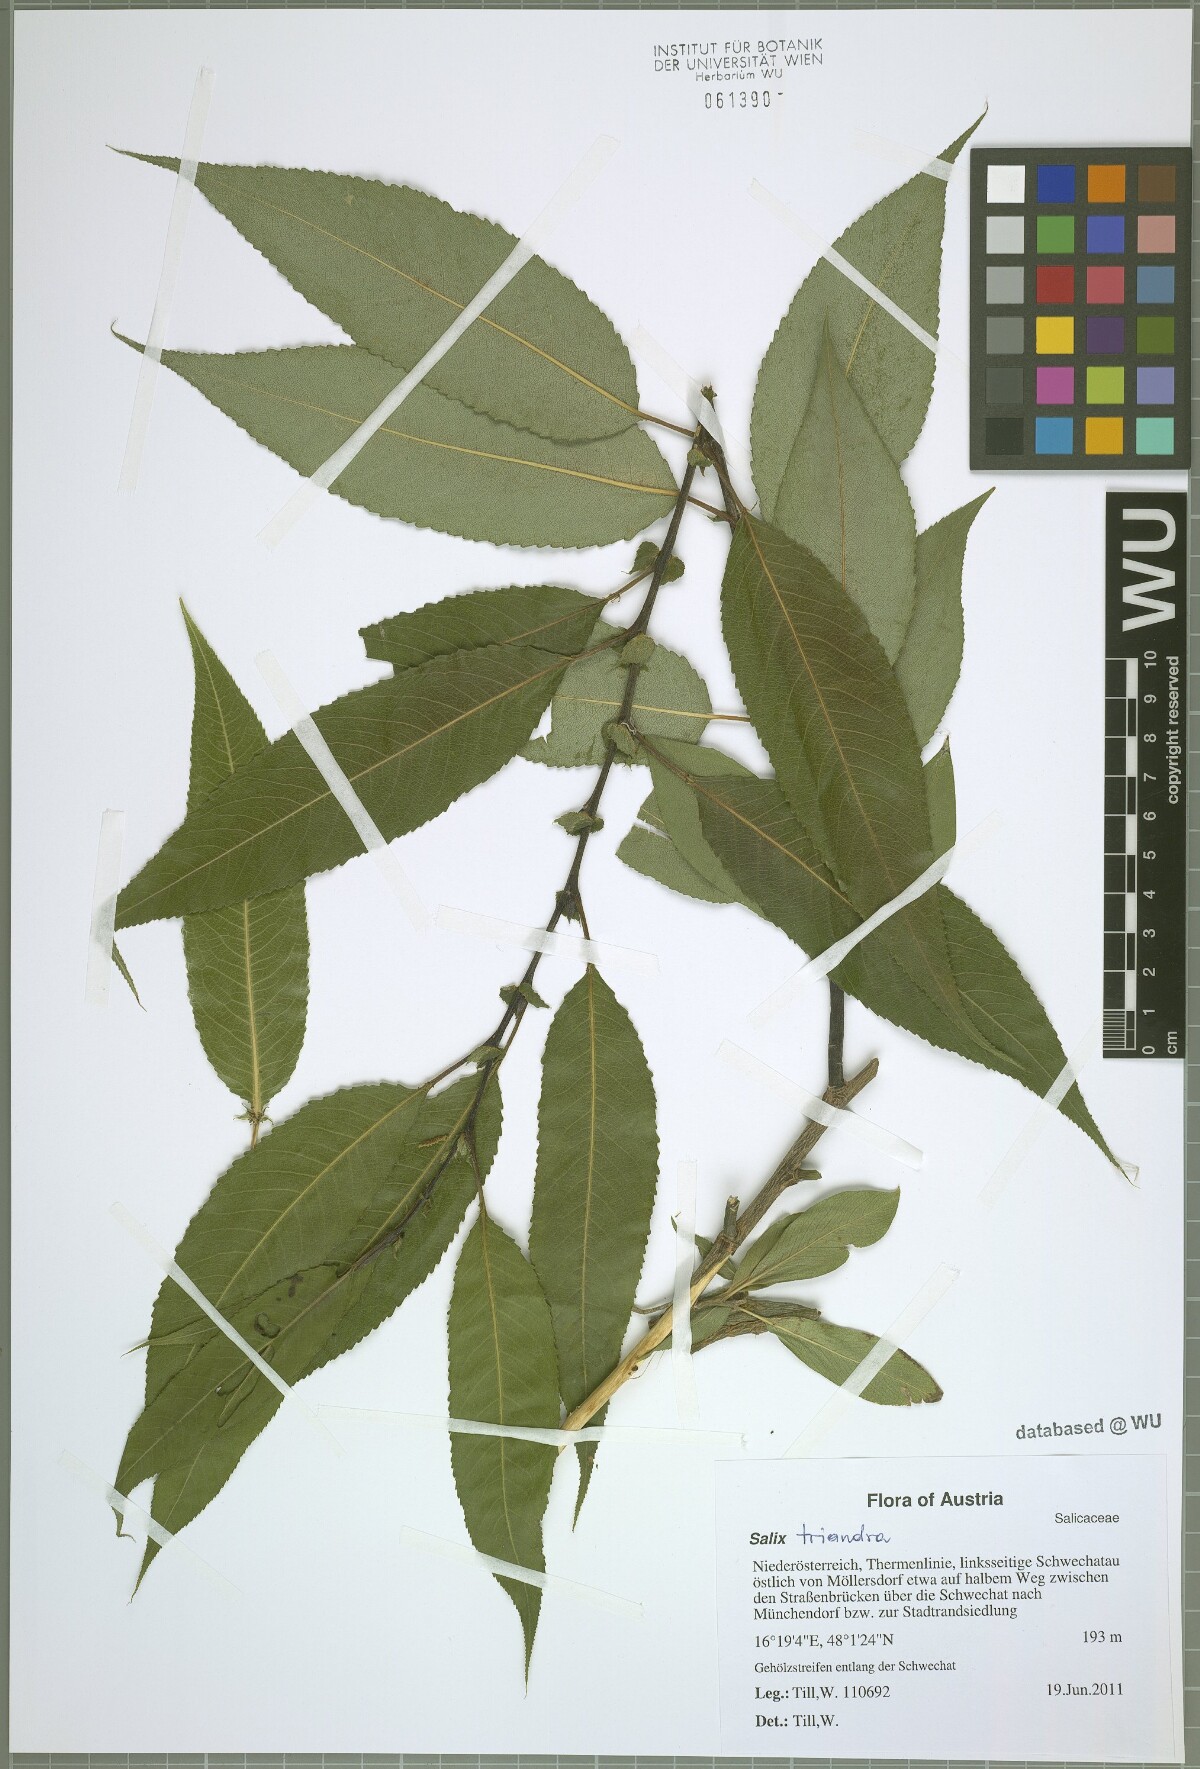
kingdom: Plantae
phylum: Tracheophyta
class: Magnoliopsida
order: Malpighiales
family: Salicaceae
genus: Salix
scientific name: Salix triandra
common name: Almond willow
